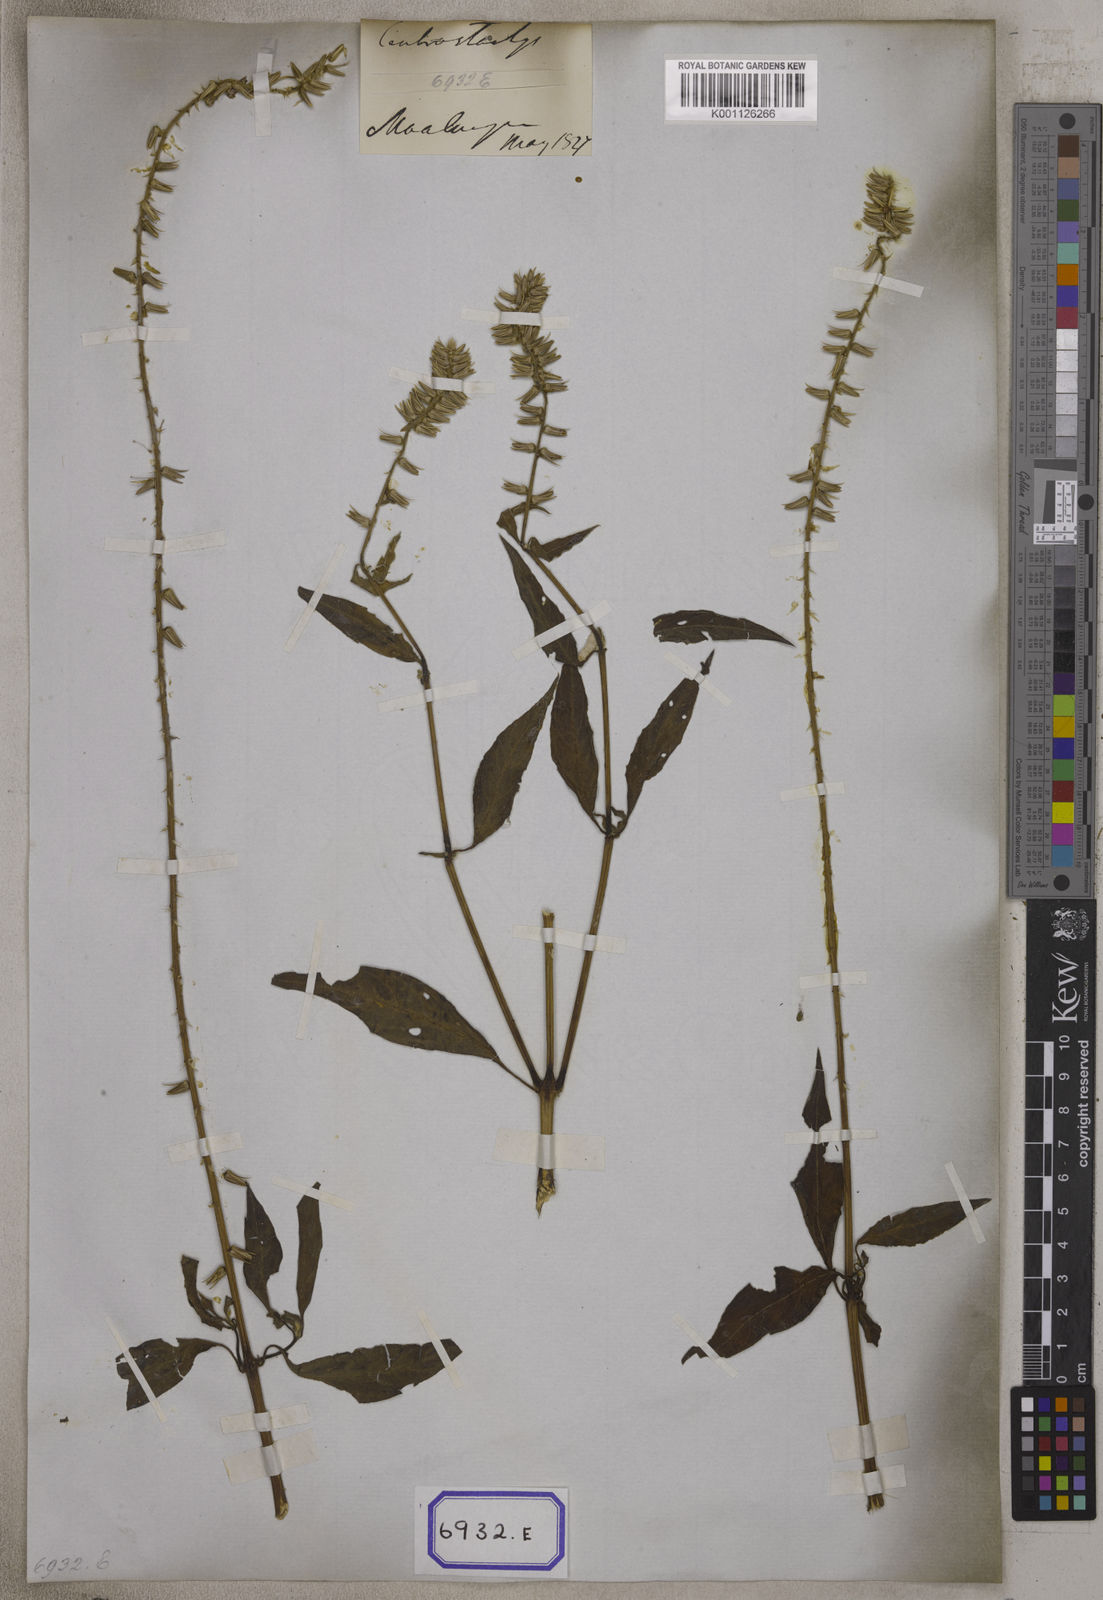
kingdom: Plantae
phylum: Tracheophyta
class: Magnoliopsida
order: Caryophyllales
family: Amaranthaceae
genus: Centrostachys
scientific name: Centrostachys
